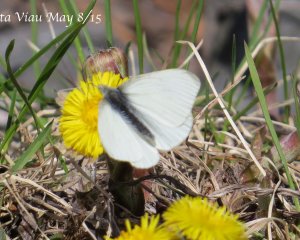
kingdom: Animalia
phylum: Arthropoda
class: Insecta
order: Lepidoptera
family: Pieridae
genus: Pieris
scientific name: Pieris rapae
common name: Cabbage White
